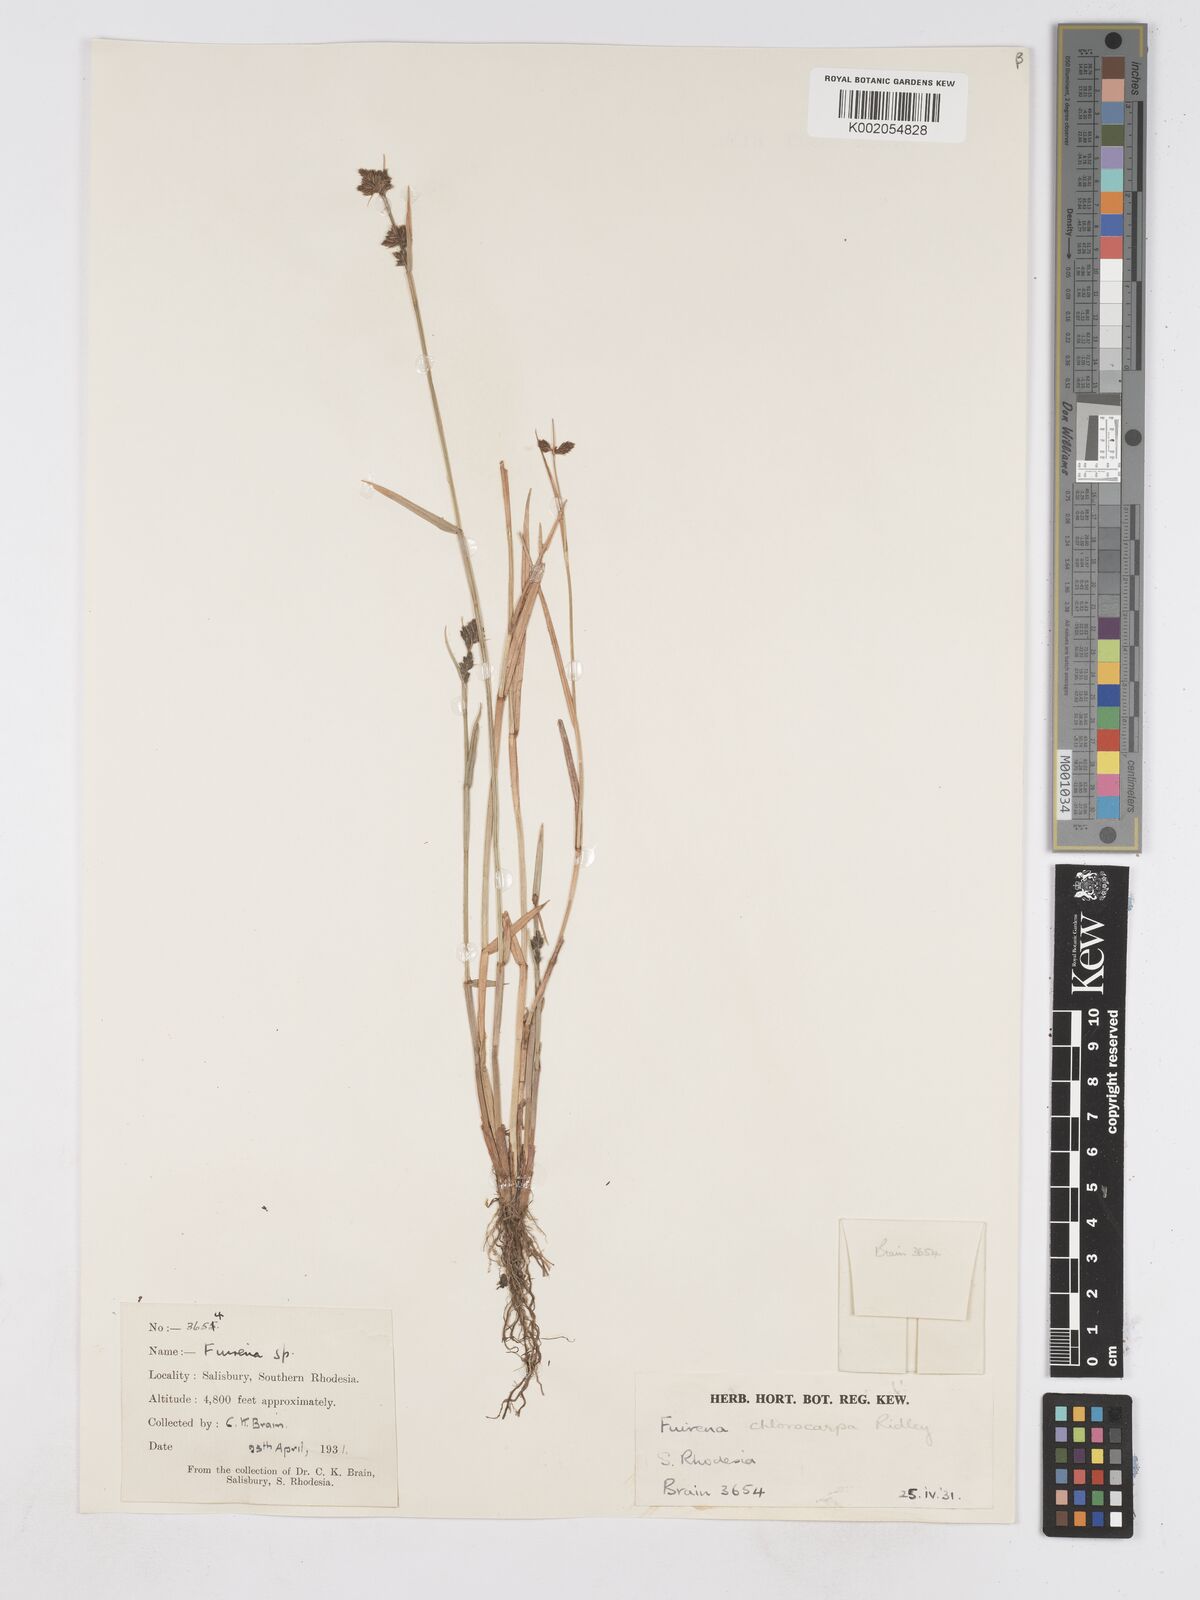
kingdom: Plantae
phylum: Tracheophyta
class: Liliopsida
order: Poales
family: Cyperaceae
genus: Fuirena
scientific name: Fuirena stricta
